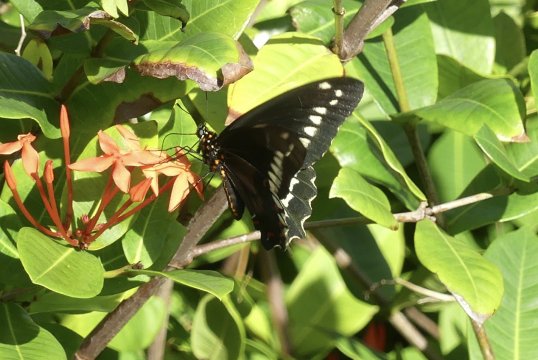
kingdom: Animalia
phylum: Arthropoda
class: Insecta
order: Lepidoptera
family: Papilionidae
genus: Battus
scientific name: Battus polydamas
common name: Polydamas Swallowtail
